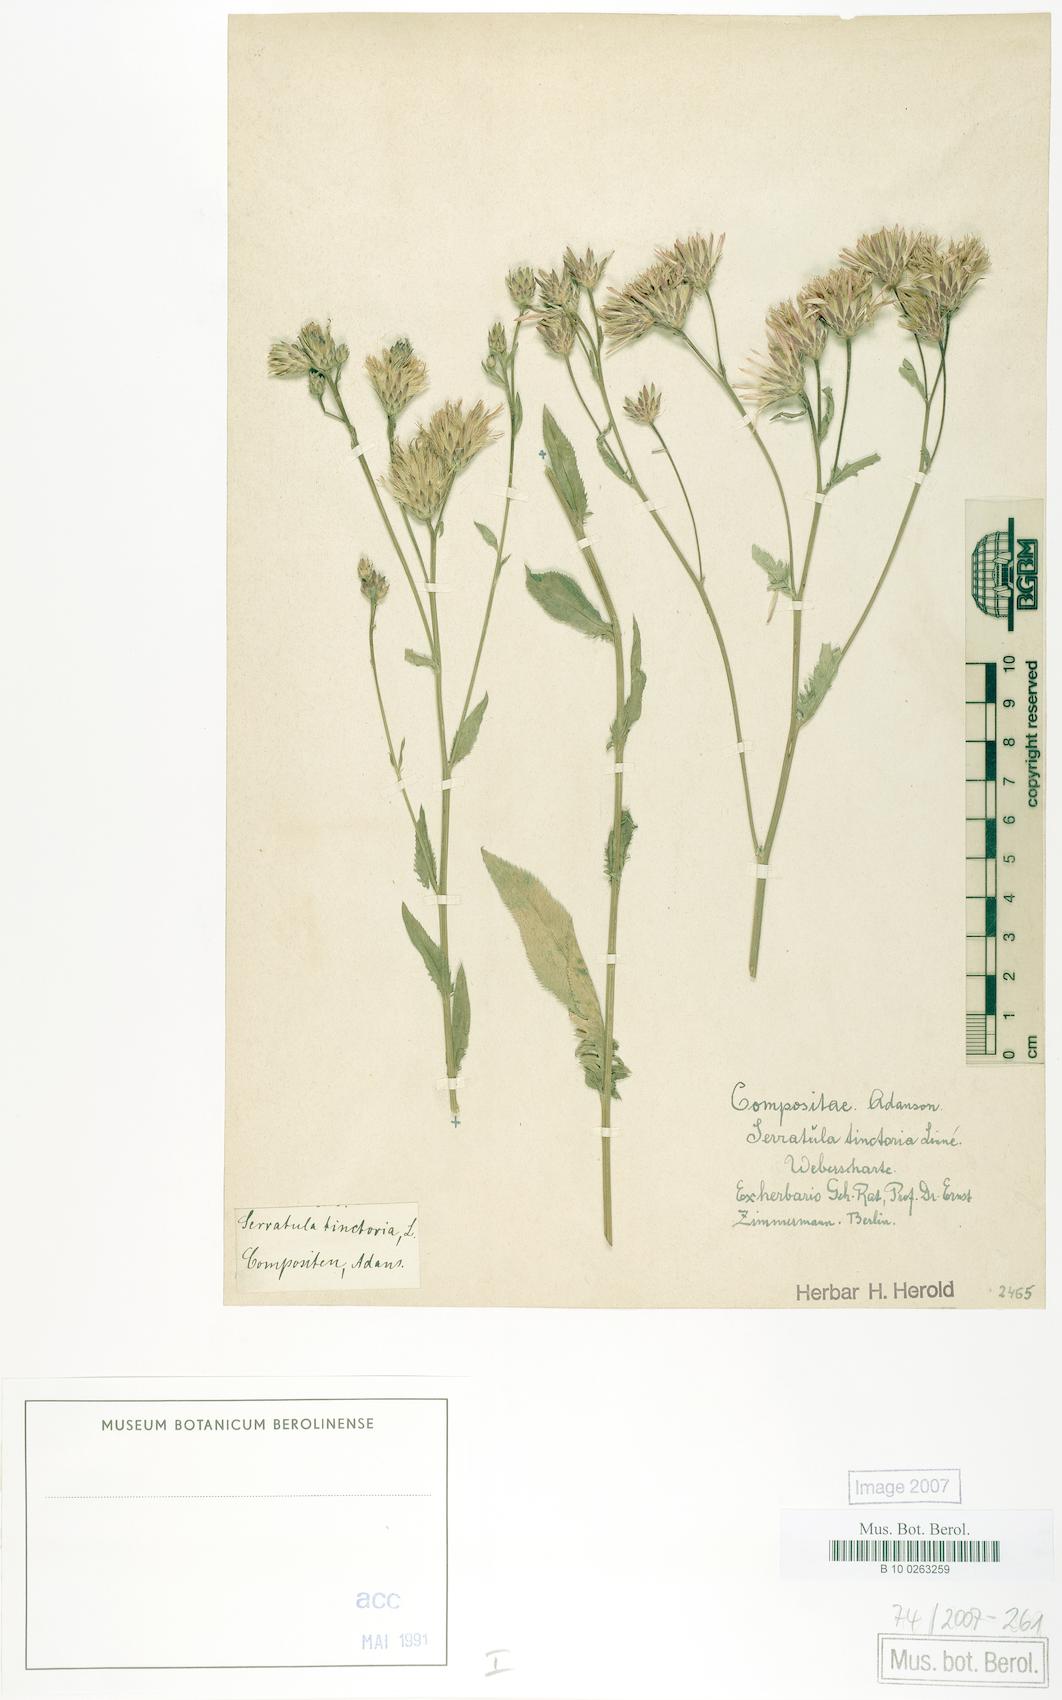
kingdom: Plantae
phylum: Tracheophyta
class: Magnoliopsida
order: Asterales
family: Asteraceae
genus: Serratula
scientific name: Serratula tinctoria
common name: Saw-wort
